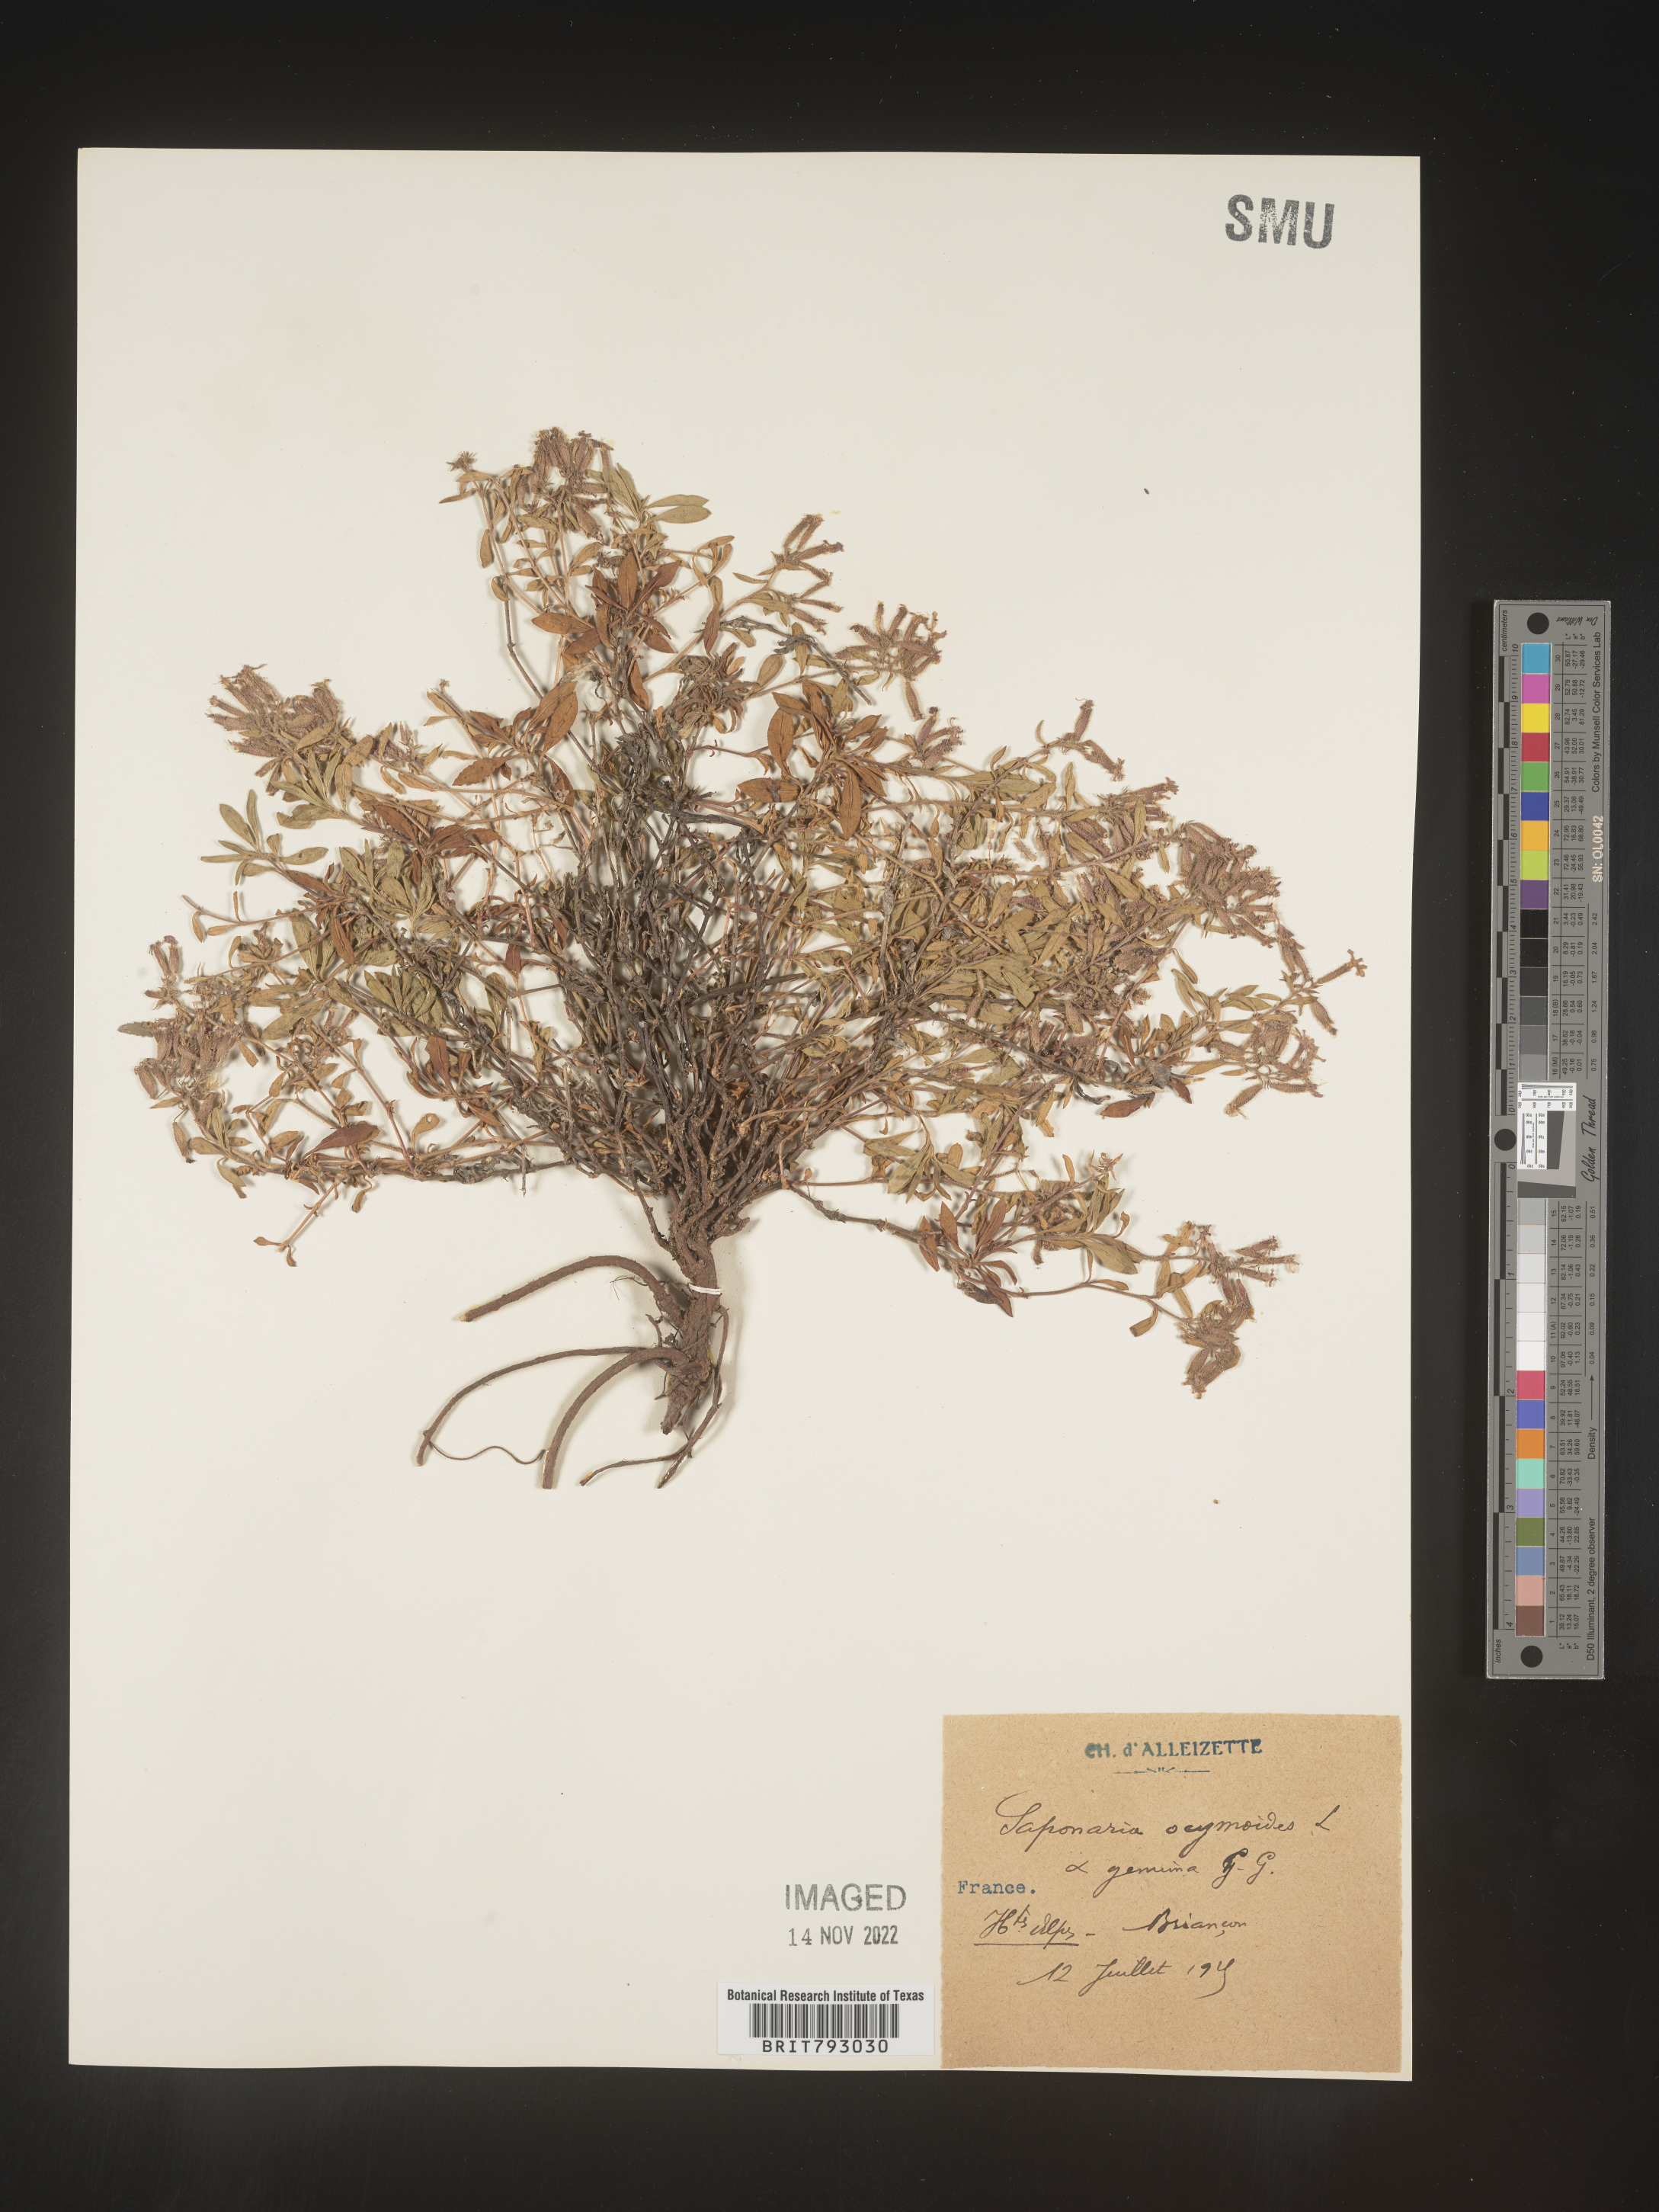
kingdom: Plantae
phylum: Tracheophyta
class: Magnoliopsida
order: Caryophyllales
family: Caryophyllaceae
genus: Saponaria
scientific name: Saponaria
